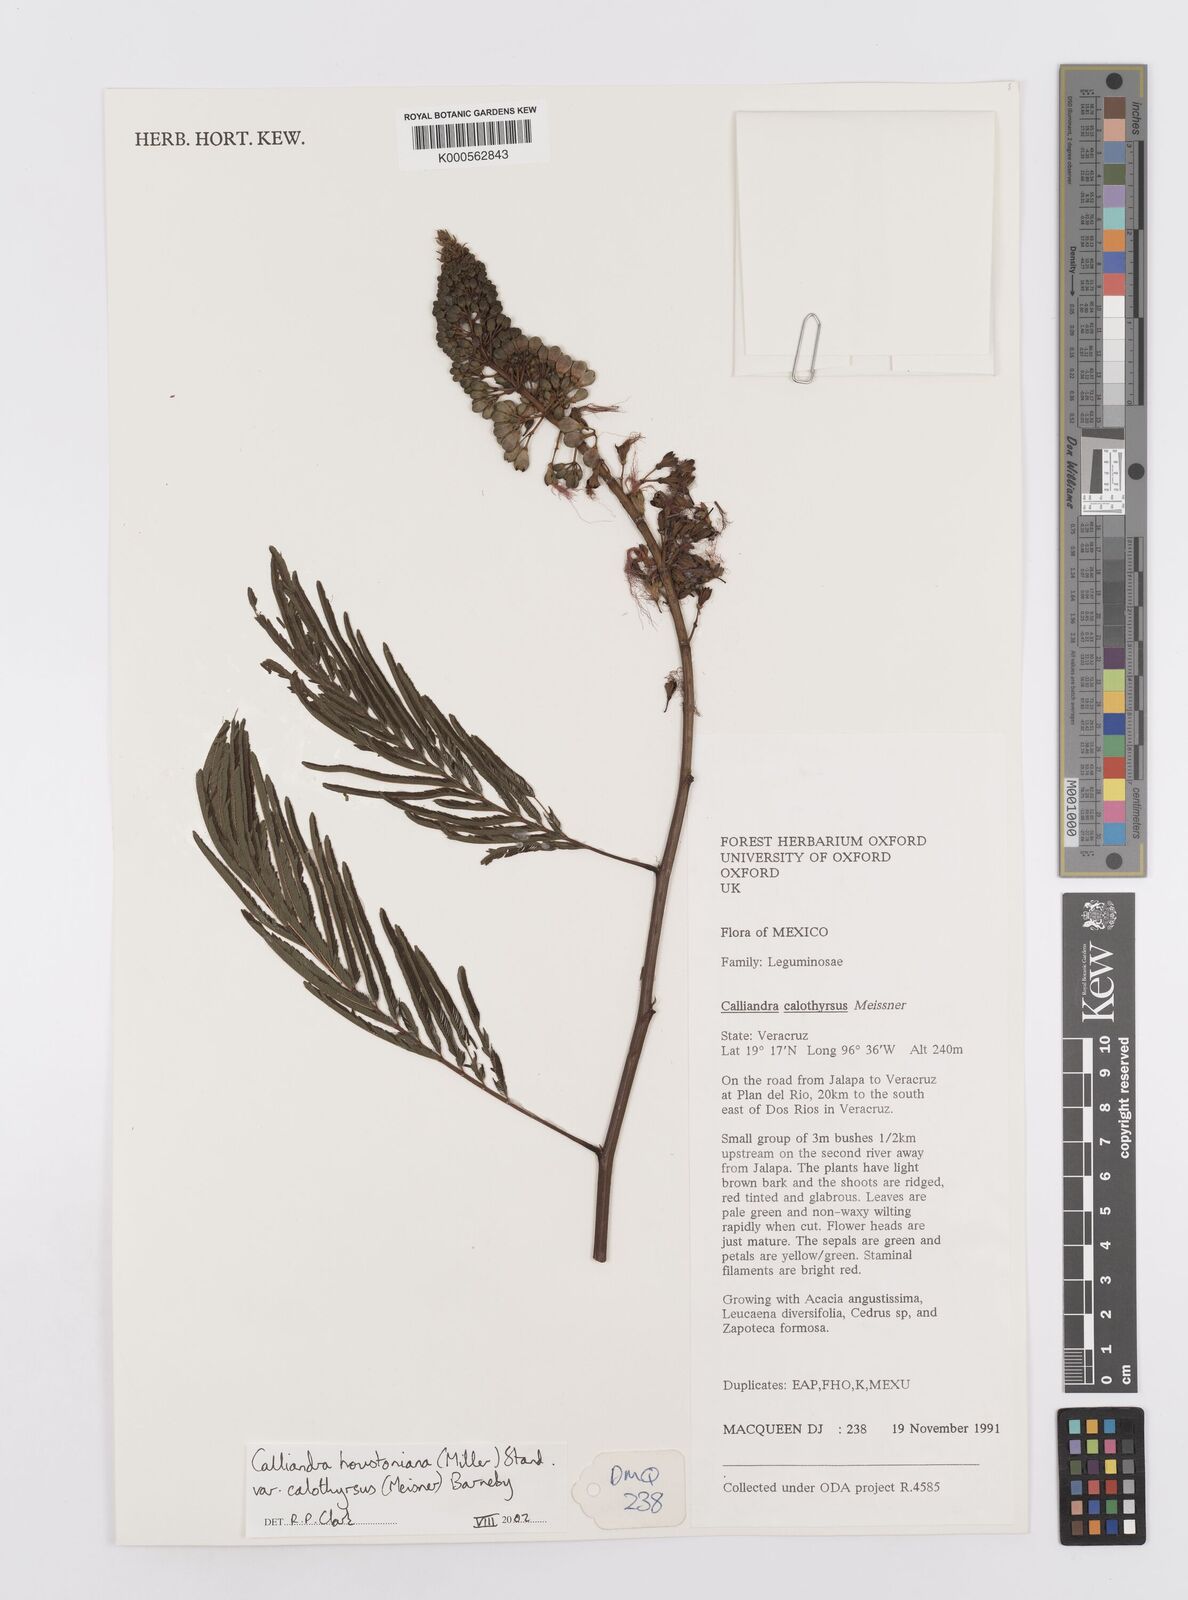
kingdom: Plantae
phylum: Tracheophyta
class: Magnoliopsida
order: Fabales
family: Fabaceae
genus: Calliandra
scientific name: Calliandra houstoniana
